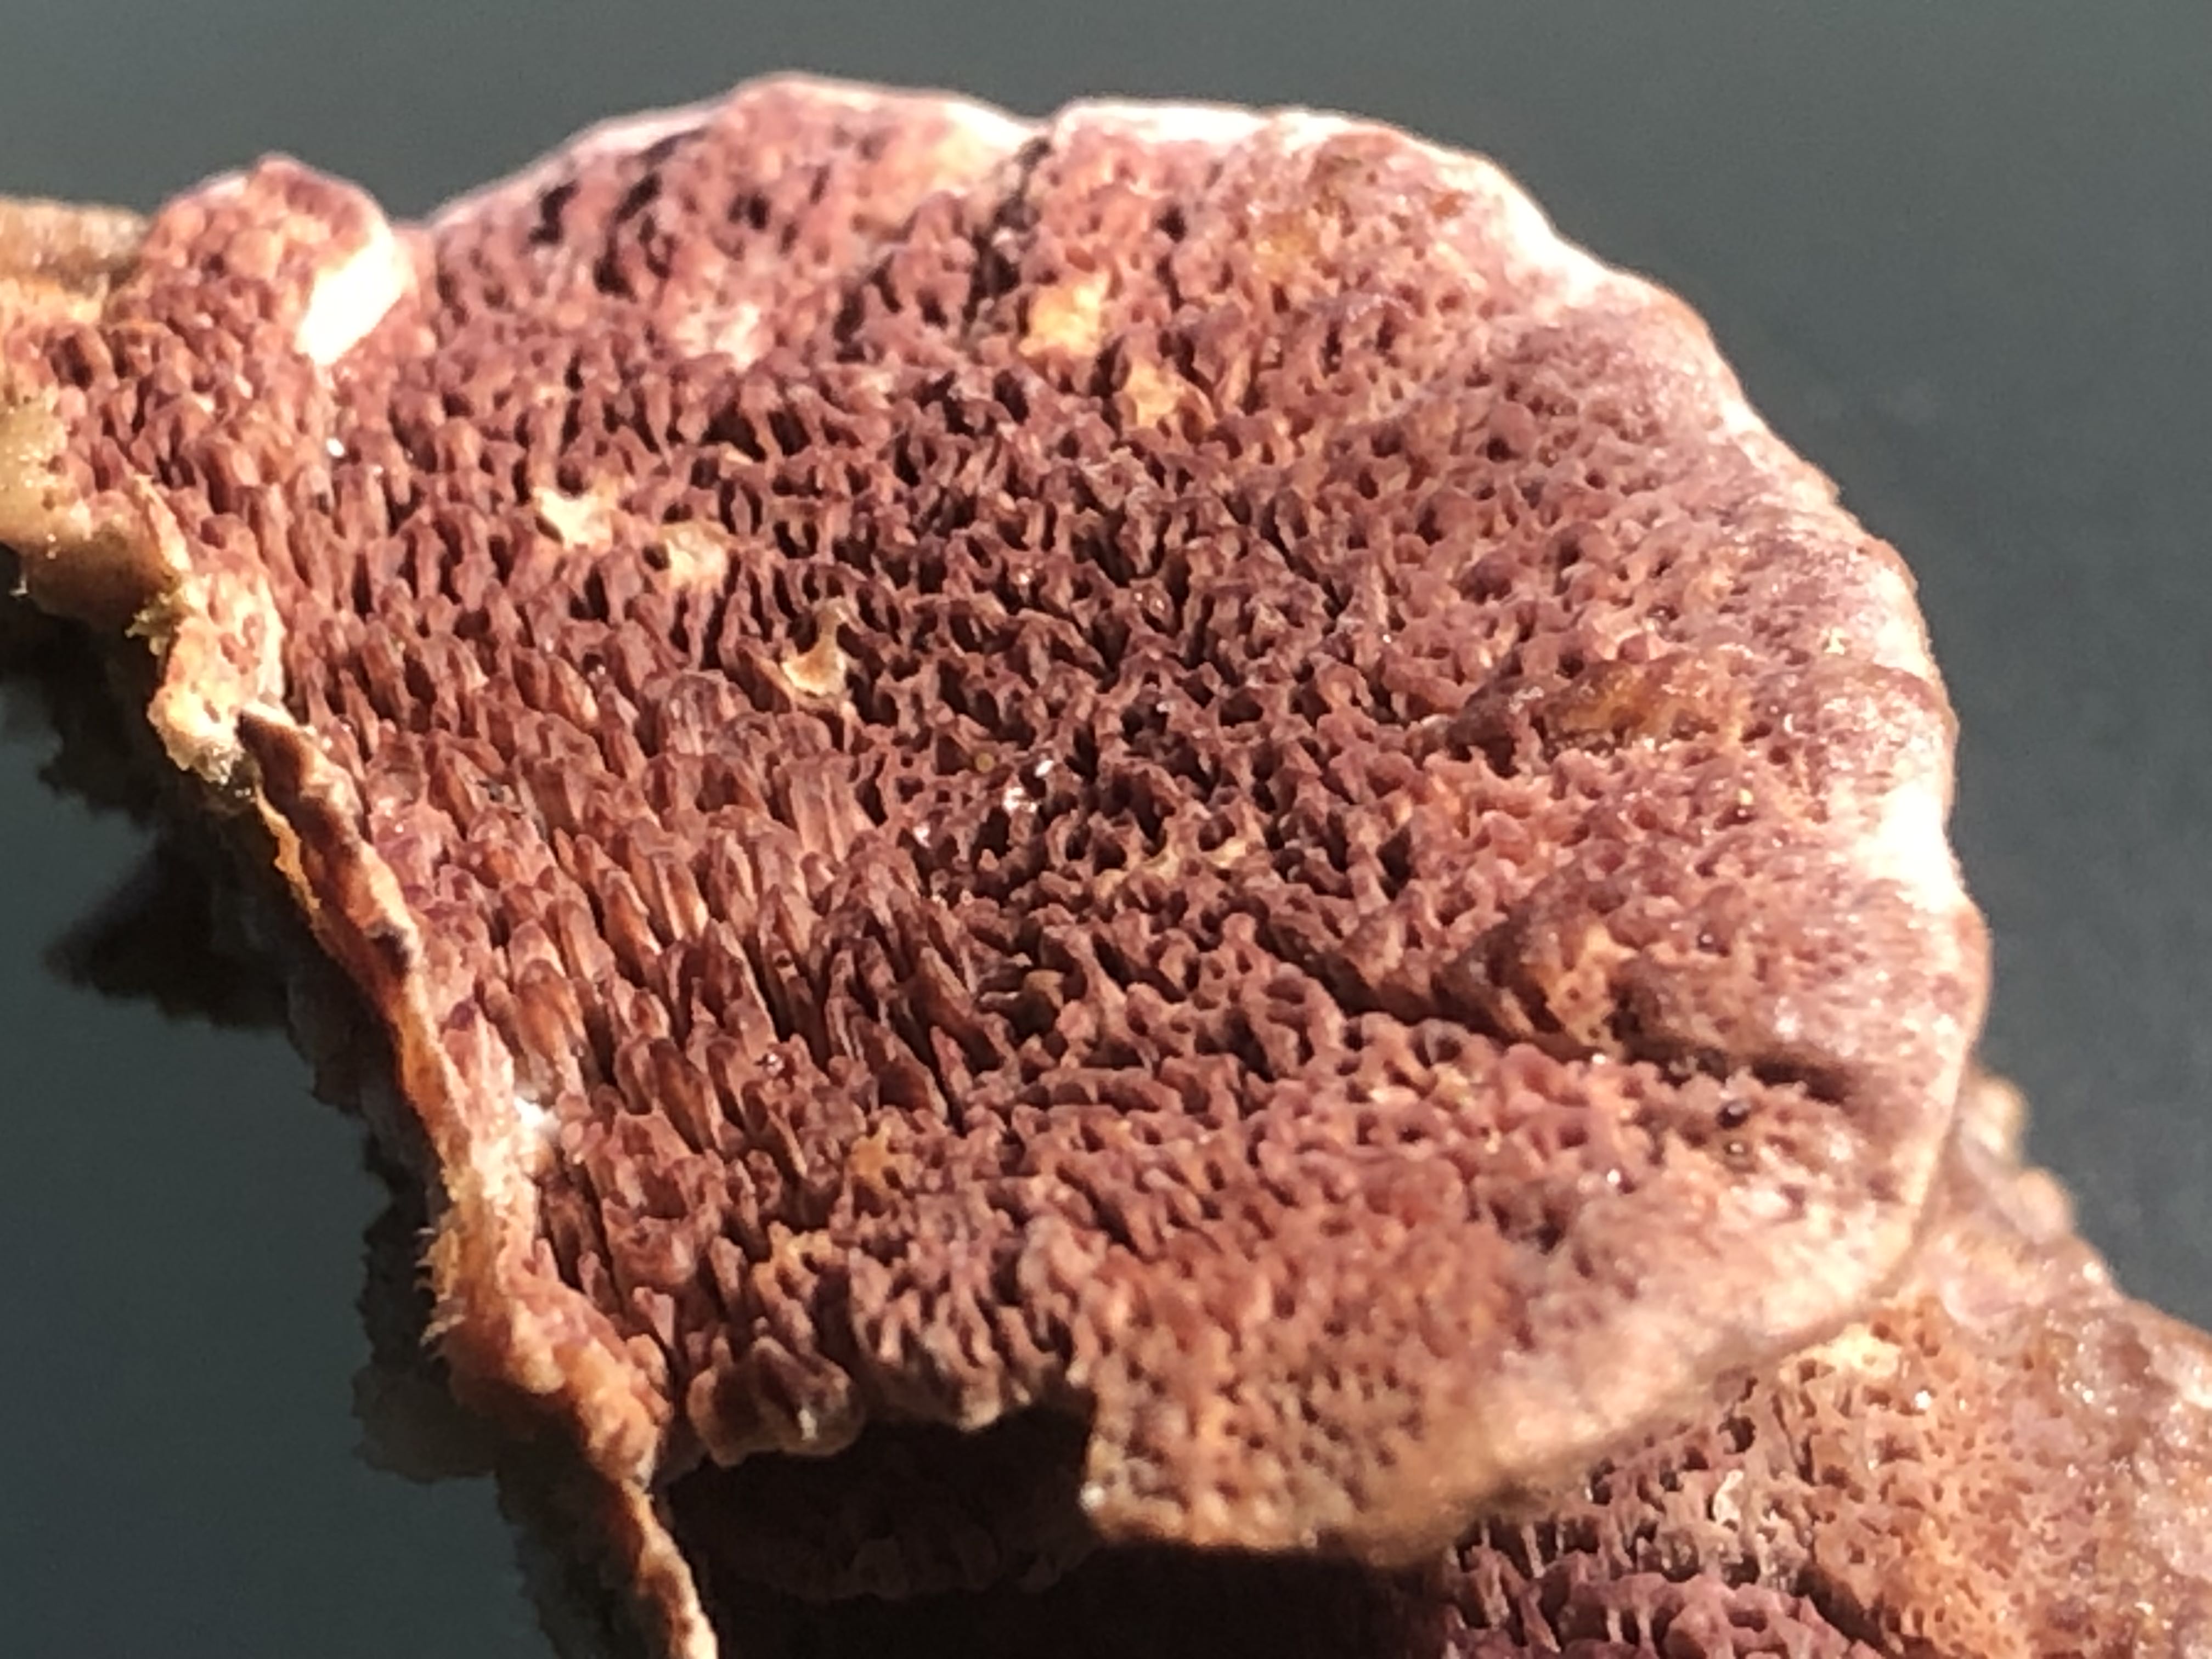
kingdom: Fungi
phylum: Basidiomycota
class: Agaricomycetes
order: Hymenochaetales
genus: Trichaptum
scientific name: Trichaptum abietinum
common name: almindelig violporesvamp
